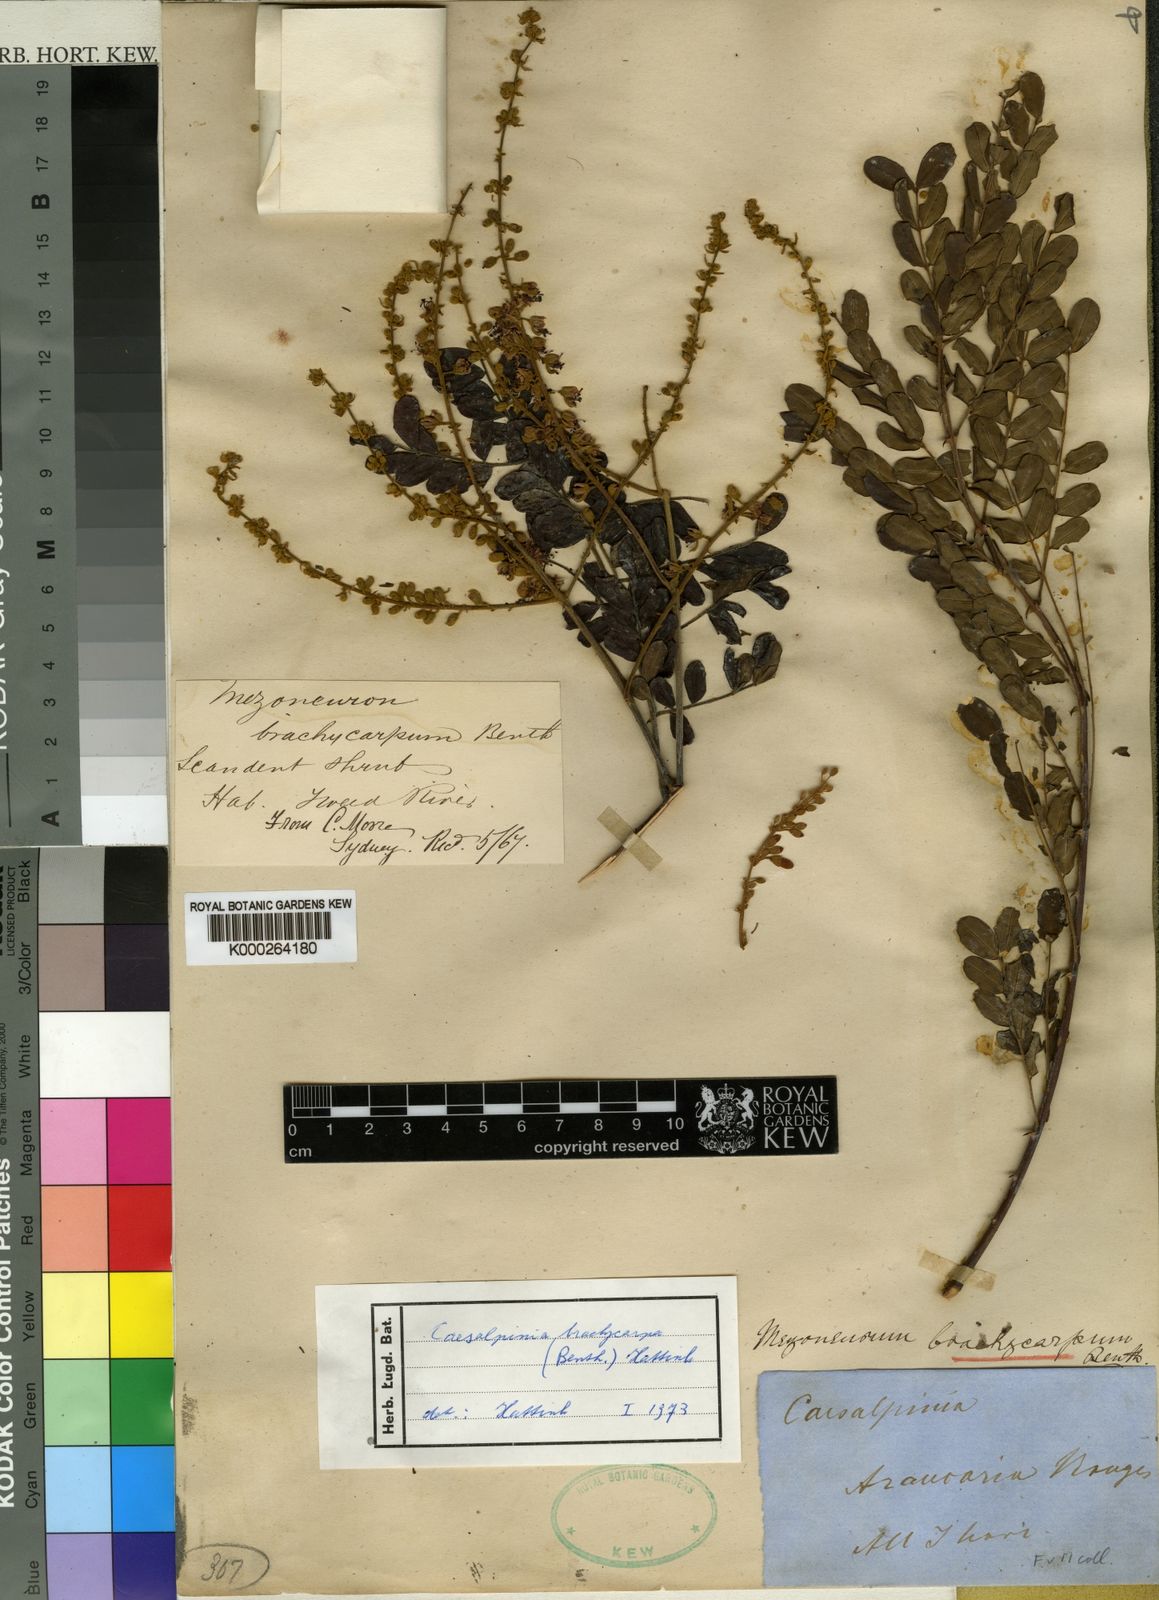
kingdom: Plantae
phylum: Tracheophyta
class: Magnoliopsida
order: Fabales
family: Fabaceae
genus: Mezoneuron
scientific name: Mezoneuron brachycarpum
